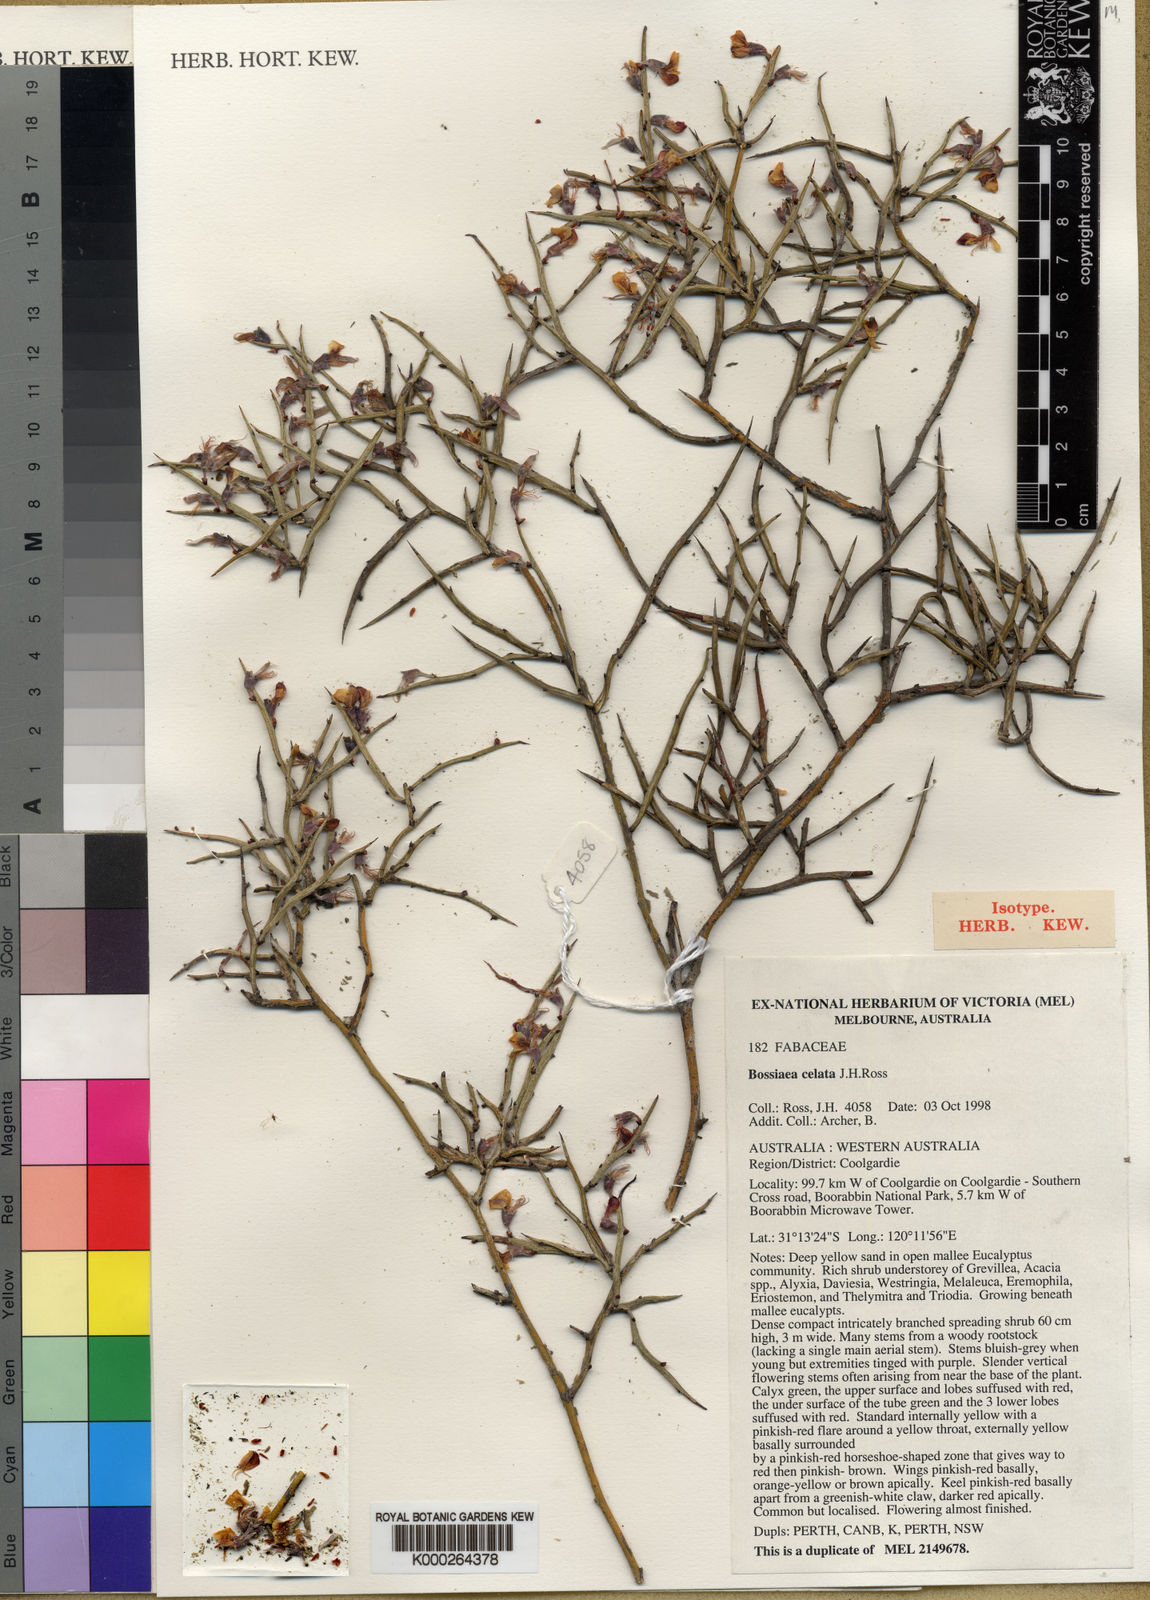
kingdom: Plantae
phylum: Tracheophyta
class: Magnoliopsida
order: Fabales
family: Fabaceae
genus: Bossiaea
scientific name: Bossiaea celata
